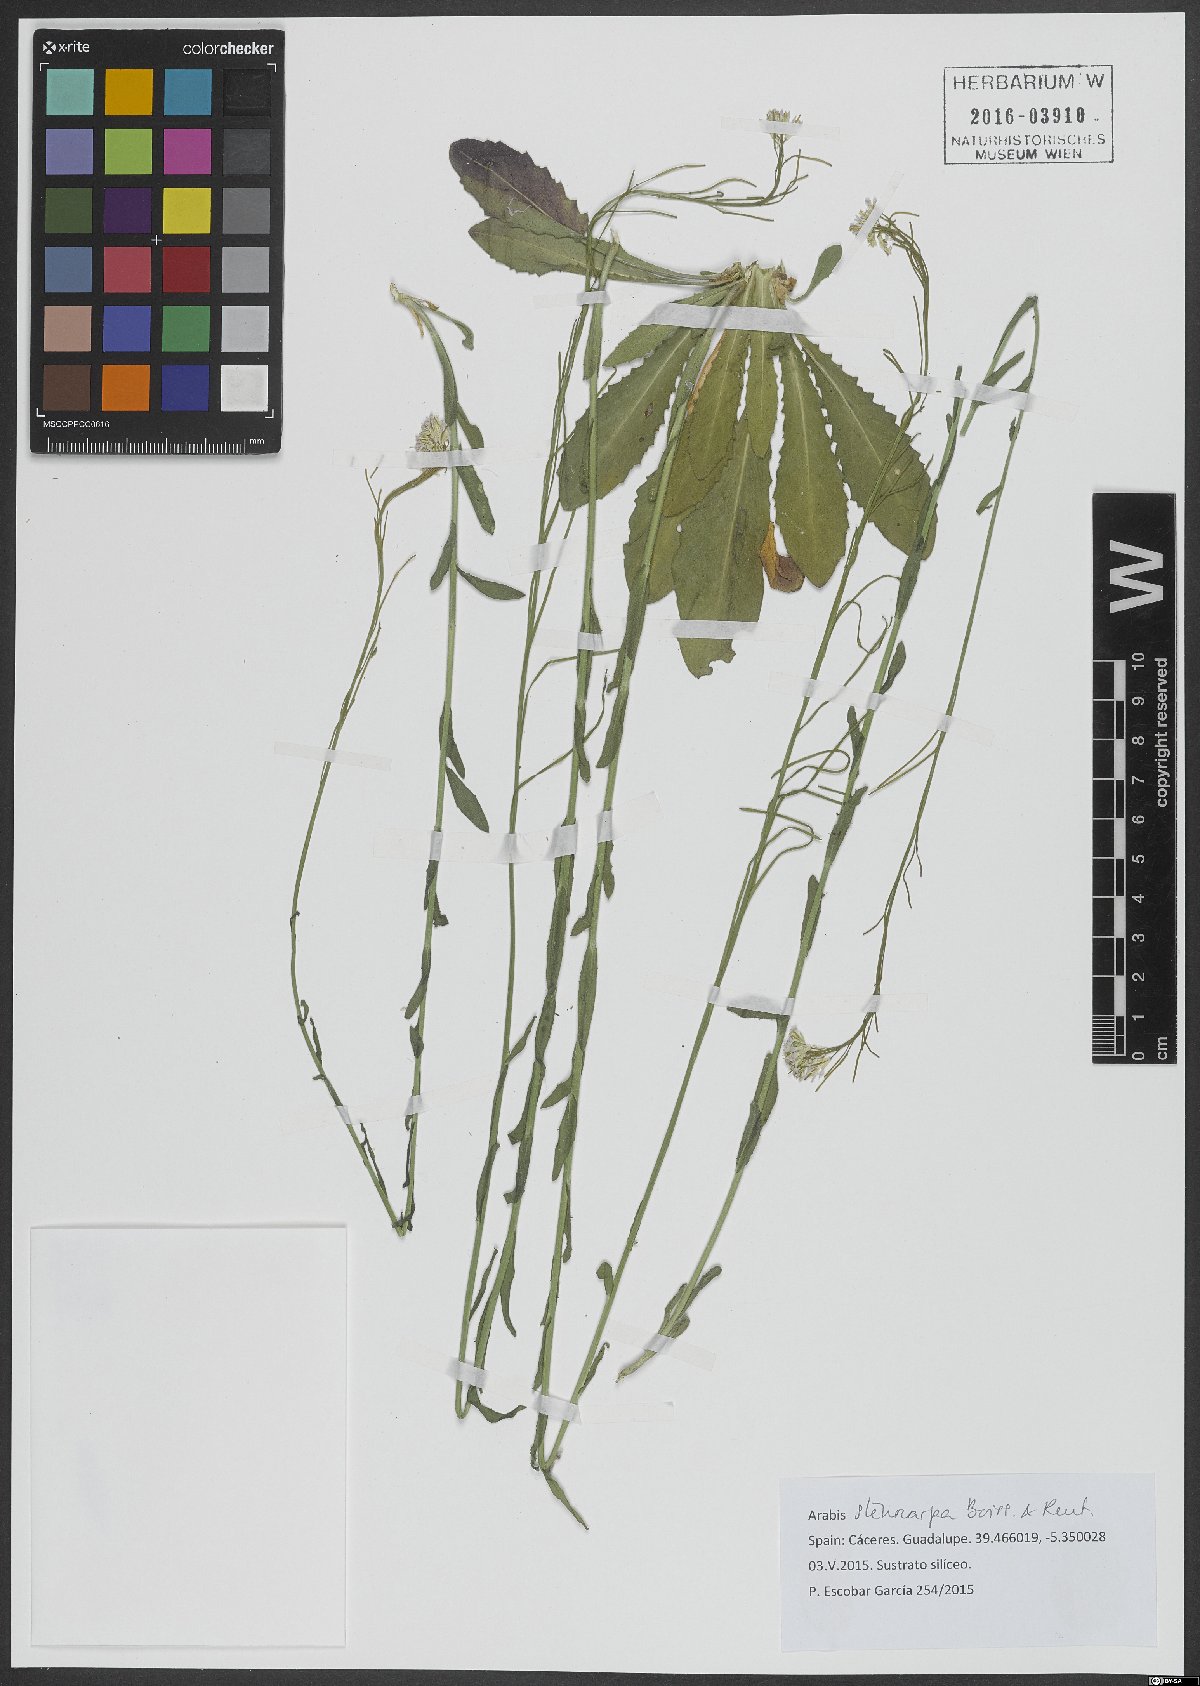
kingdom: Plantae
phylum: Tracheophyta
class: Magnoliopsida
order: Brassicales
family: Brassicaceae
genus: Arabis
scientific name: Arabis stenocarpa
